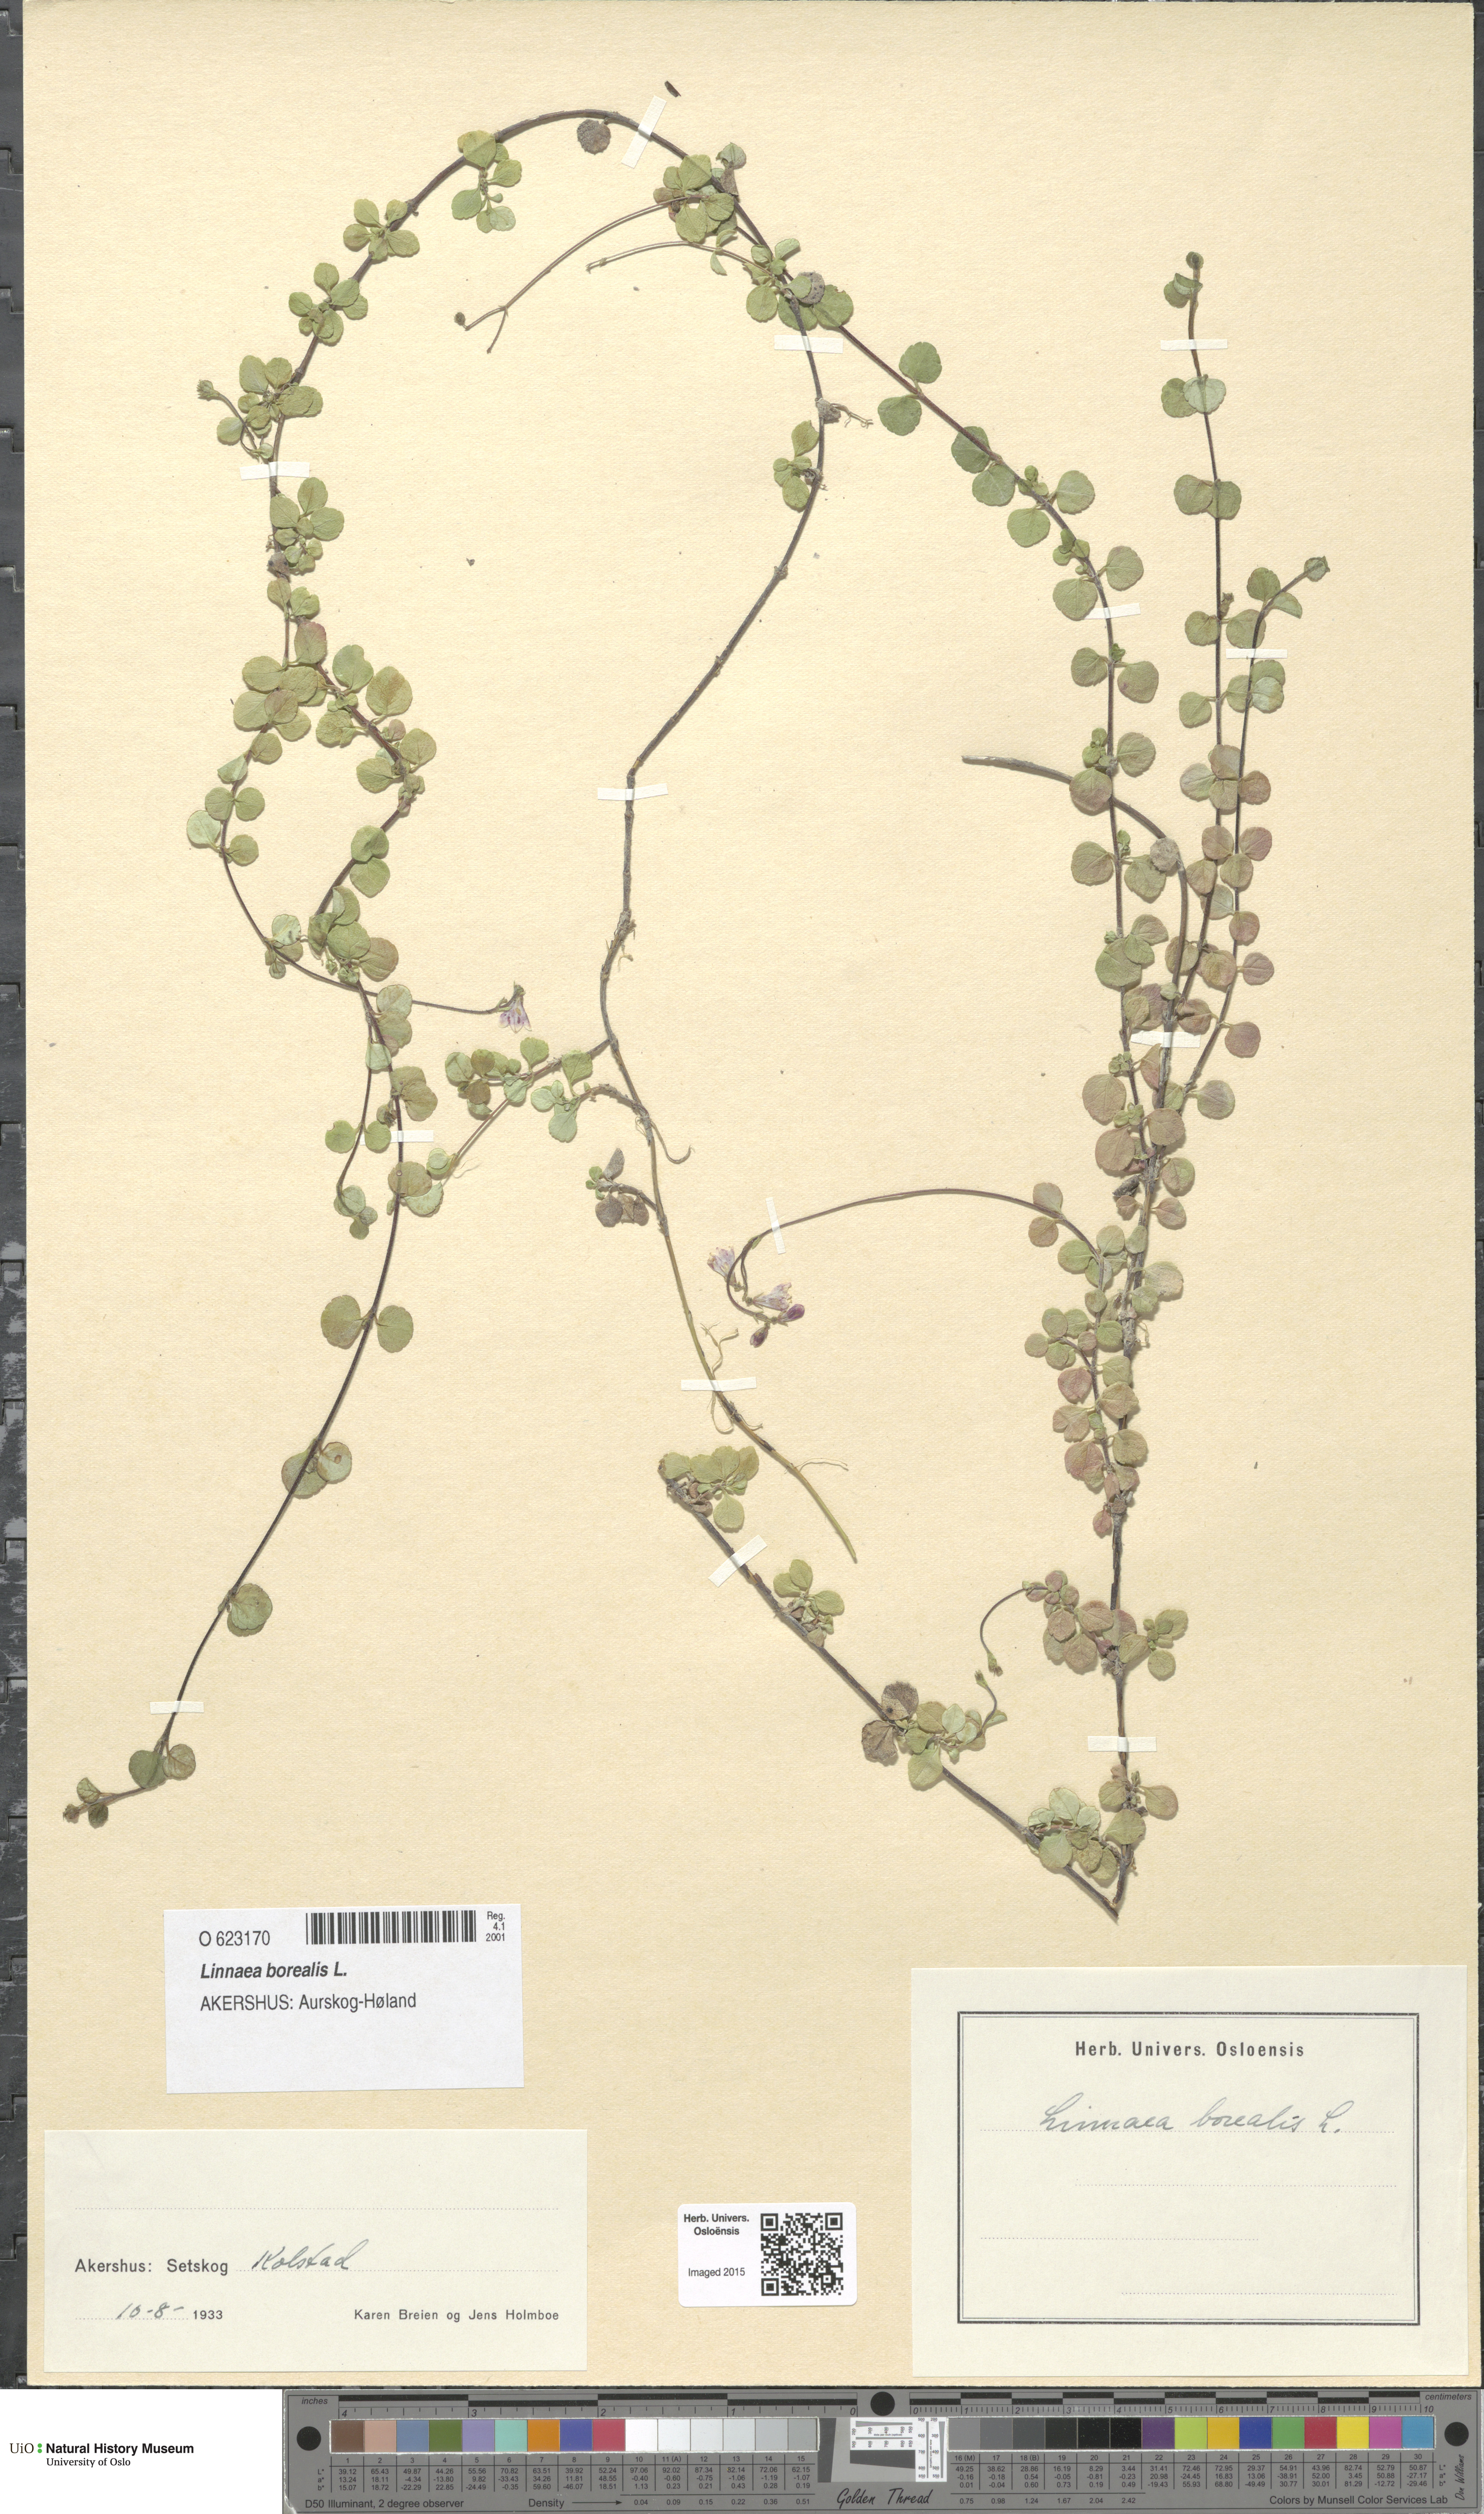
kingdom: Plantae
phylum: Tracheophyta
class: Magnoliopsida
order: Dipsacales
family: Caprifoliaceae
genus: Linnaea
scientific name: Linnaea borealis
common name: Twinflower
